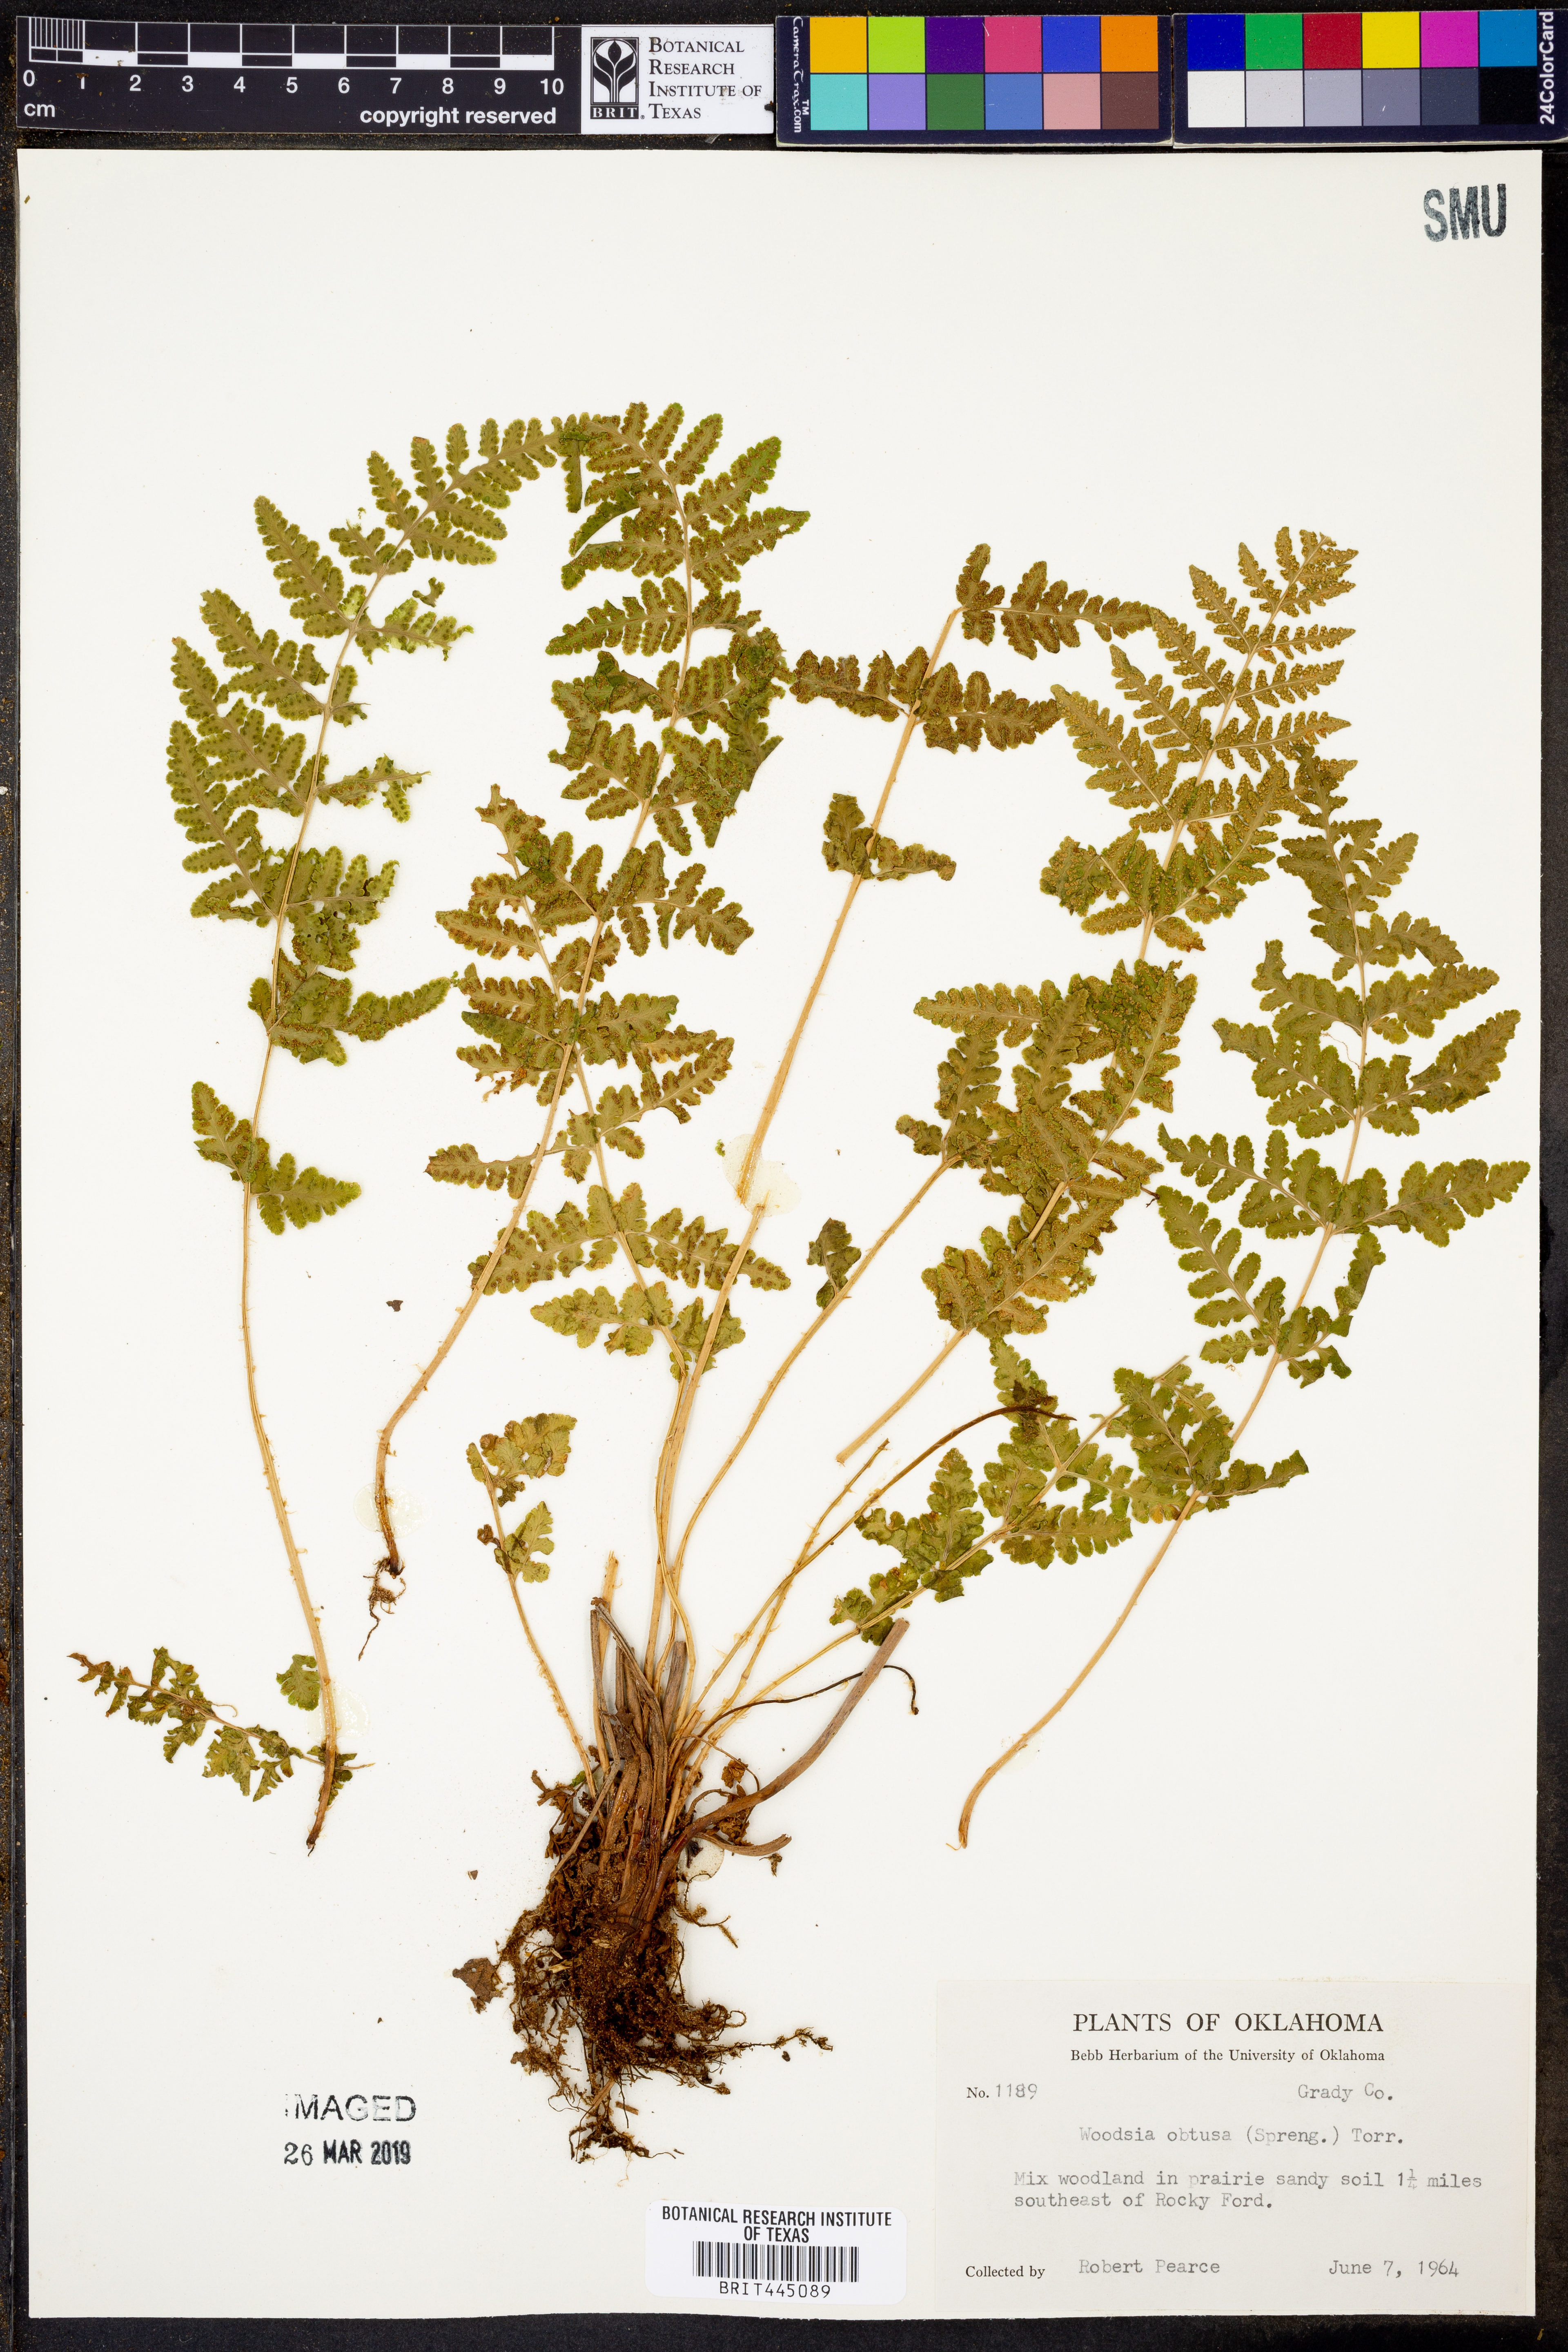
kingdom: Plantae
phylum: Tracheophyta
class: Polypodiopsida
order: Polypodiales
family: Woodsiaceae
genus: Physematium
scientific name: Physematium obtusum
